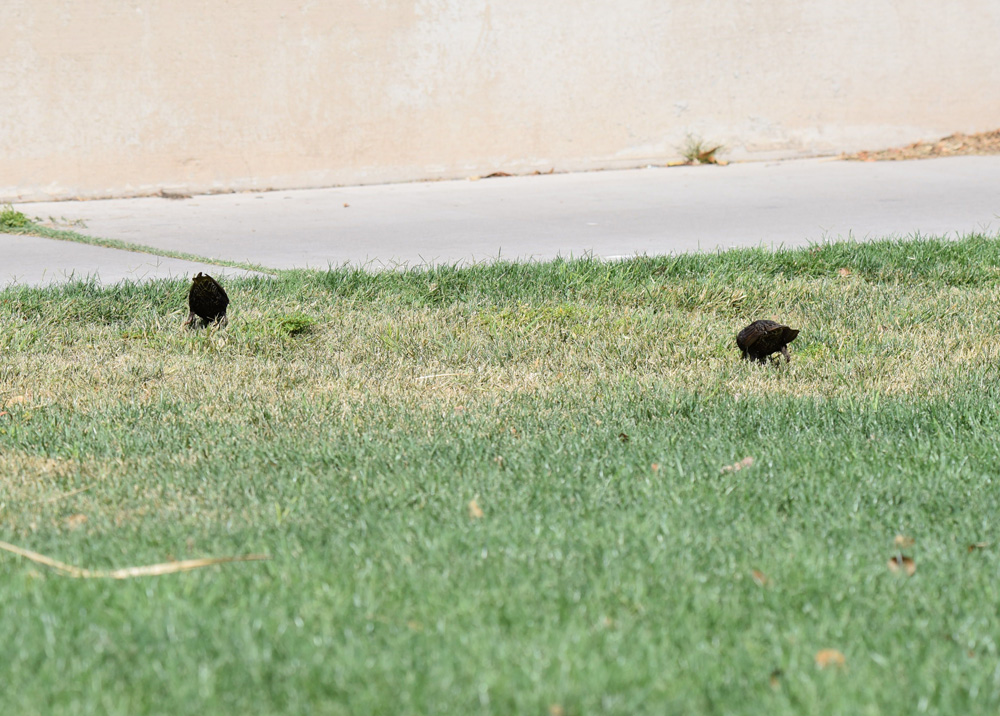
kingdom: Animalia
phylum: Chordata
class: Aves
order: Passeriformes
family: Sturnidae
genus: Sturnus
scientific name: Sturnus vulgaris
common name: Common starling
